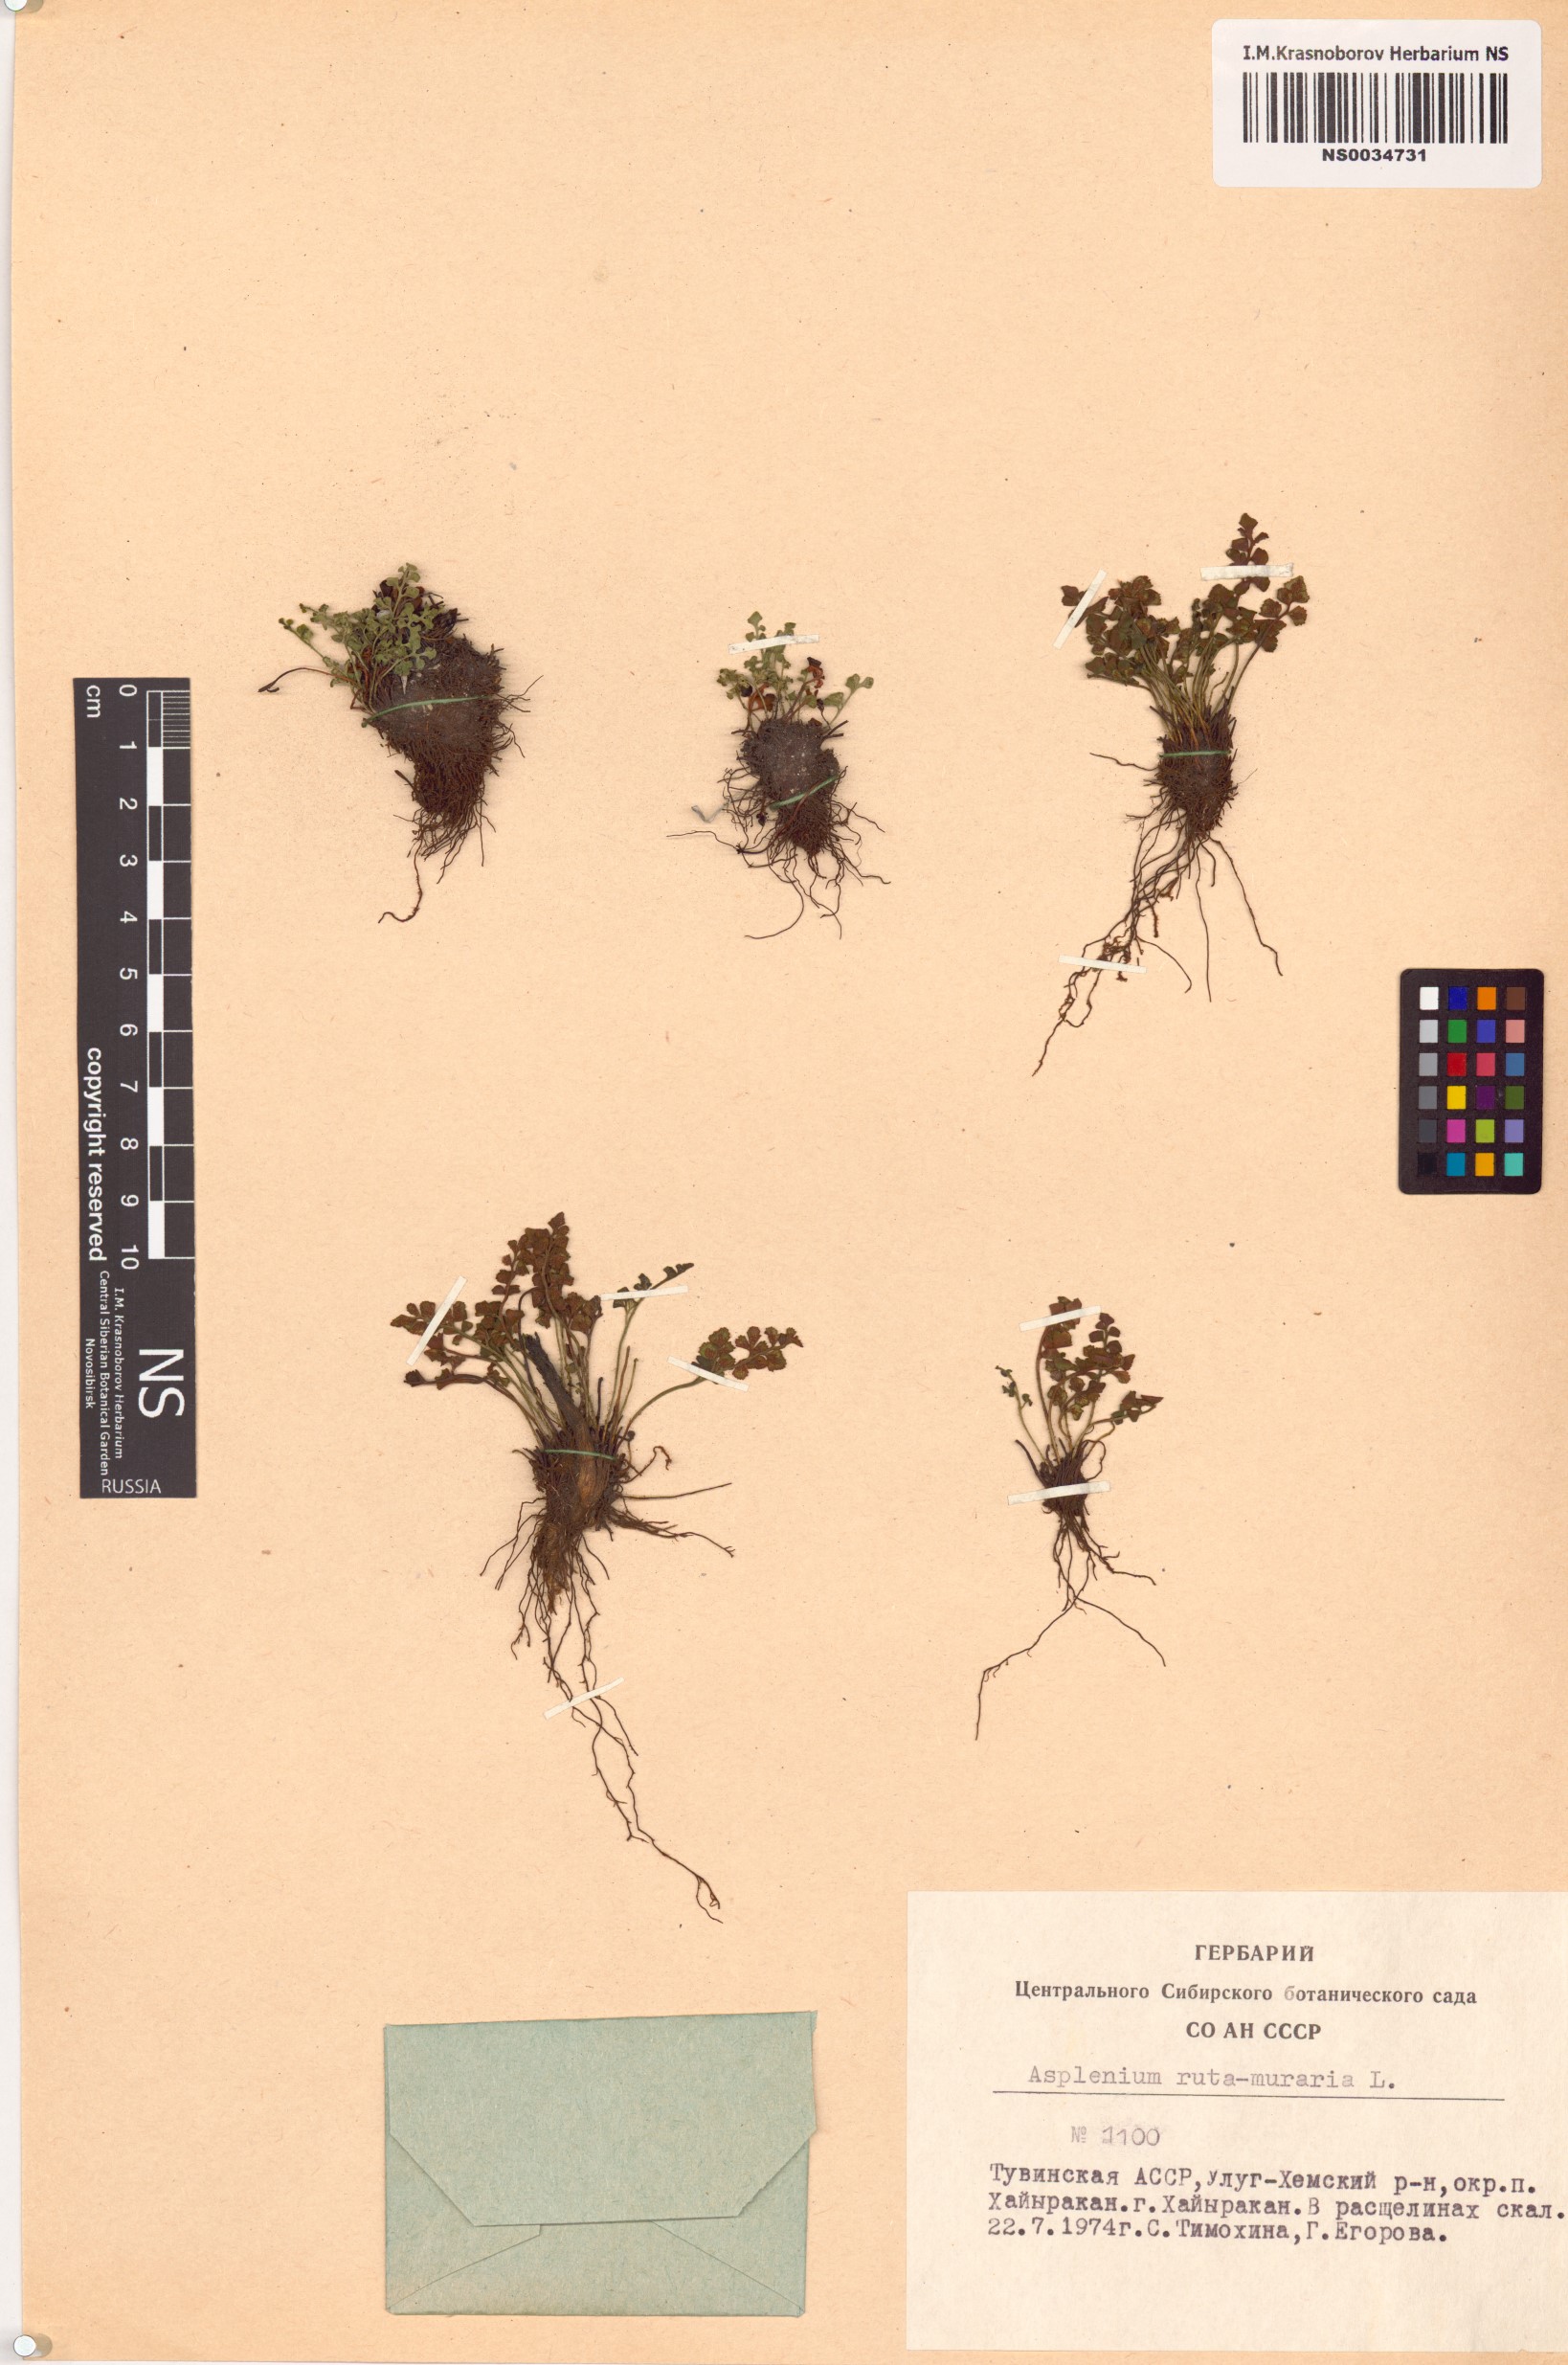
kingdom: Plantae
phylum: Tracheophyta
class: Polypodiopsida
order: Polypodiales
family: Aspleniaceae
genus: Asplenium
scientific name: Asplenium ruta-muraria
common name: Wall-rue
